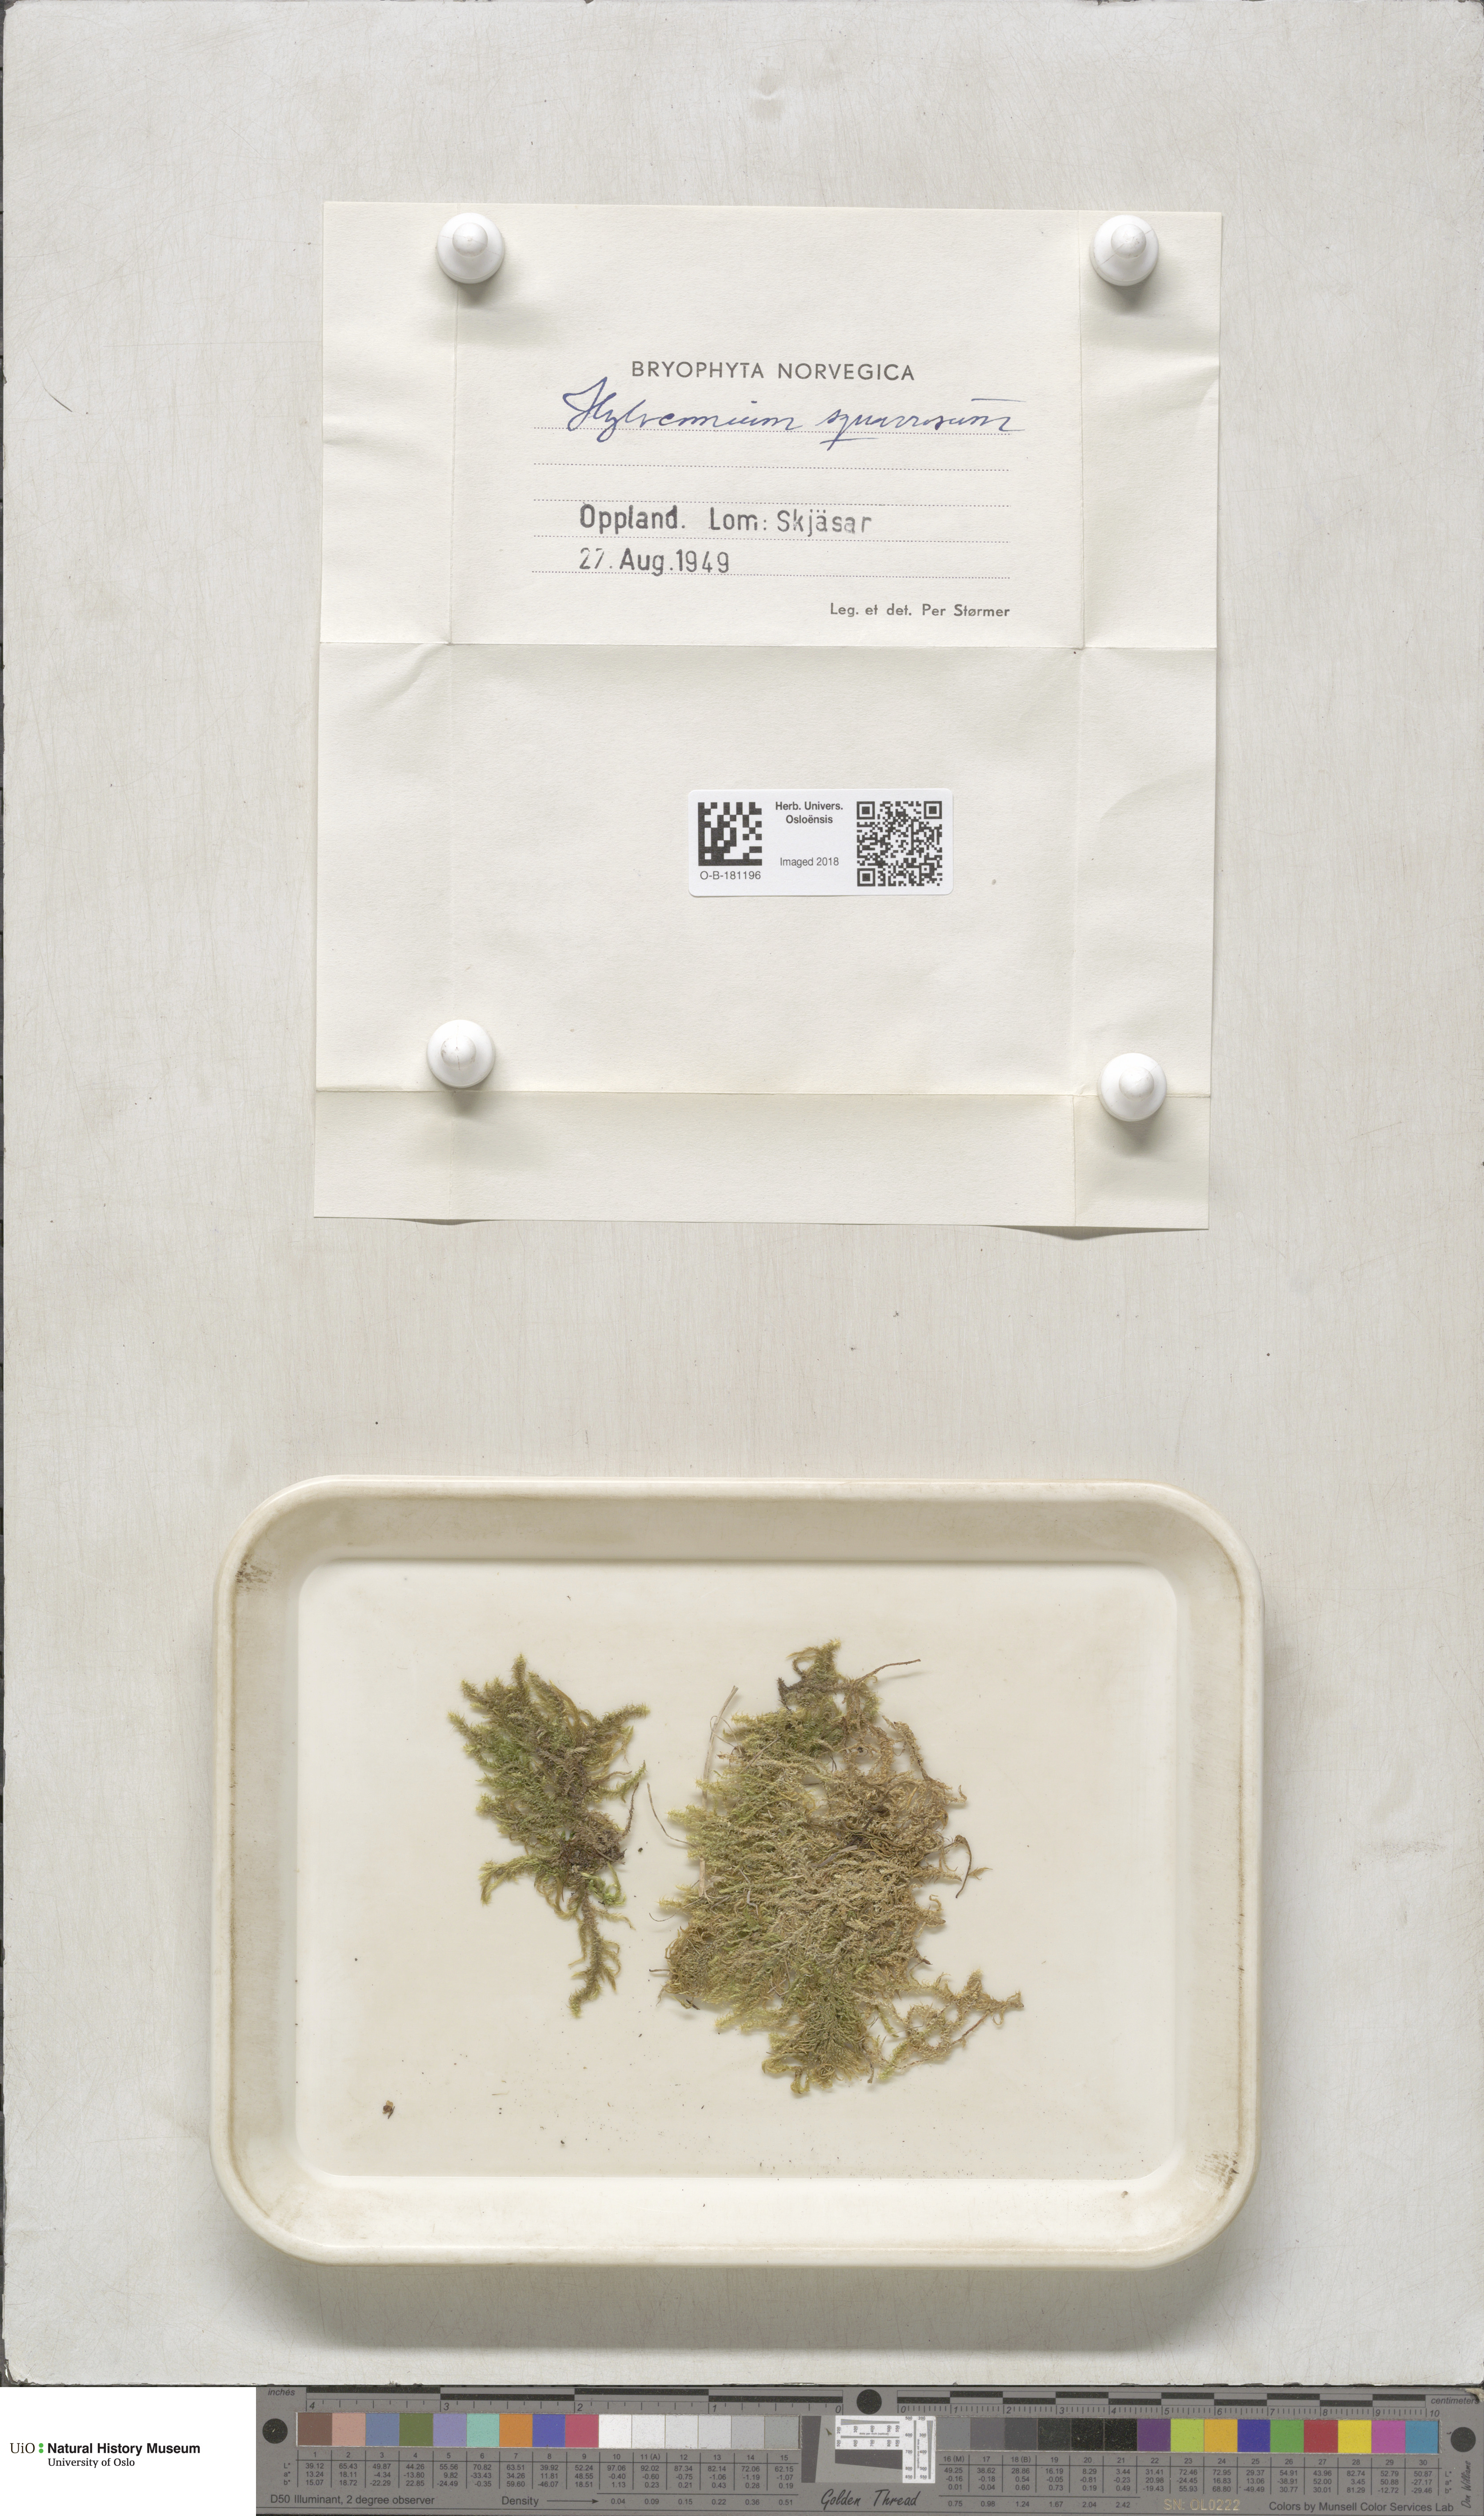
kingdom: Plantae
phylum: Bryophyta
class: Bryopsida
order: Hypnales
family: Hylocomiaceae
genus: Rhytidiadelphus
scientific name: Rhytidiadelphus squarrosus
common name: Springy turf-moss
